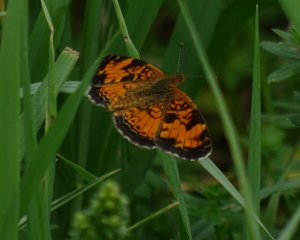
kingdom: Animalia
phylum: Arthropoda
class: Insecta
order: Lepidoptera
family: Nymphalidae
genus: Phyciodes
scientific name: Phyciodes tharos
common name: Northern Crescent
